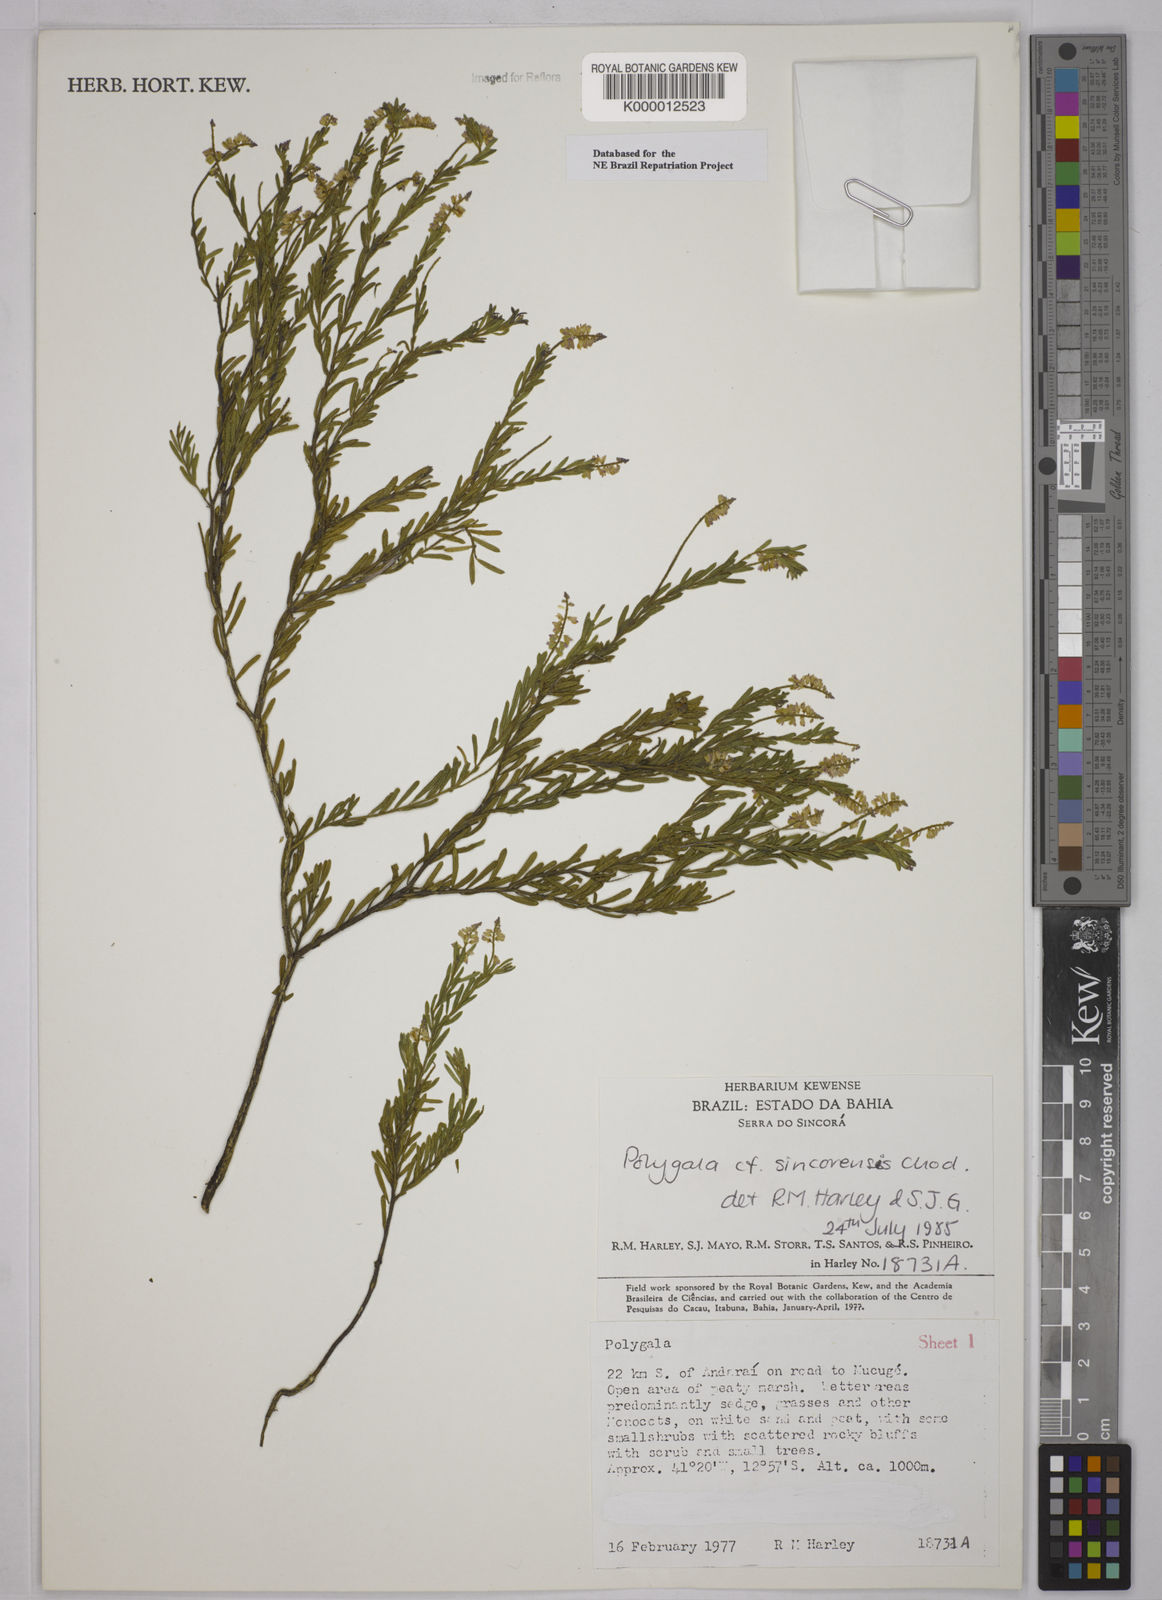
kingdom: Plantae
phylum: Tracheophyta
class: Magnoliopsida
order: Fabales
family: Polygalaceae
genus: Polygala
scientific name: Polygala tuberculata
